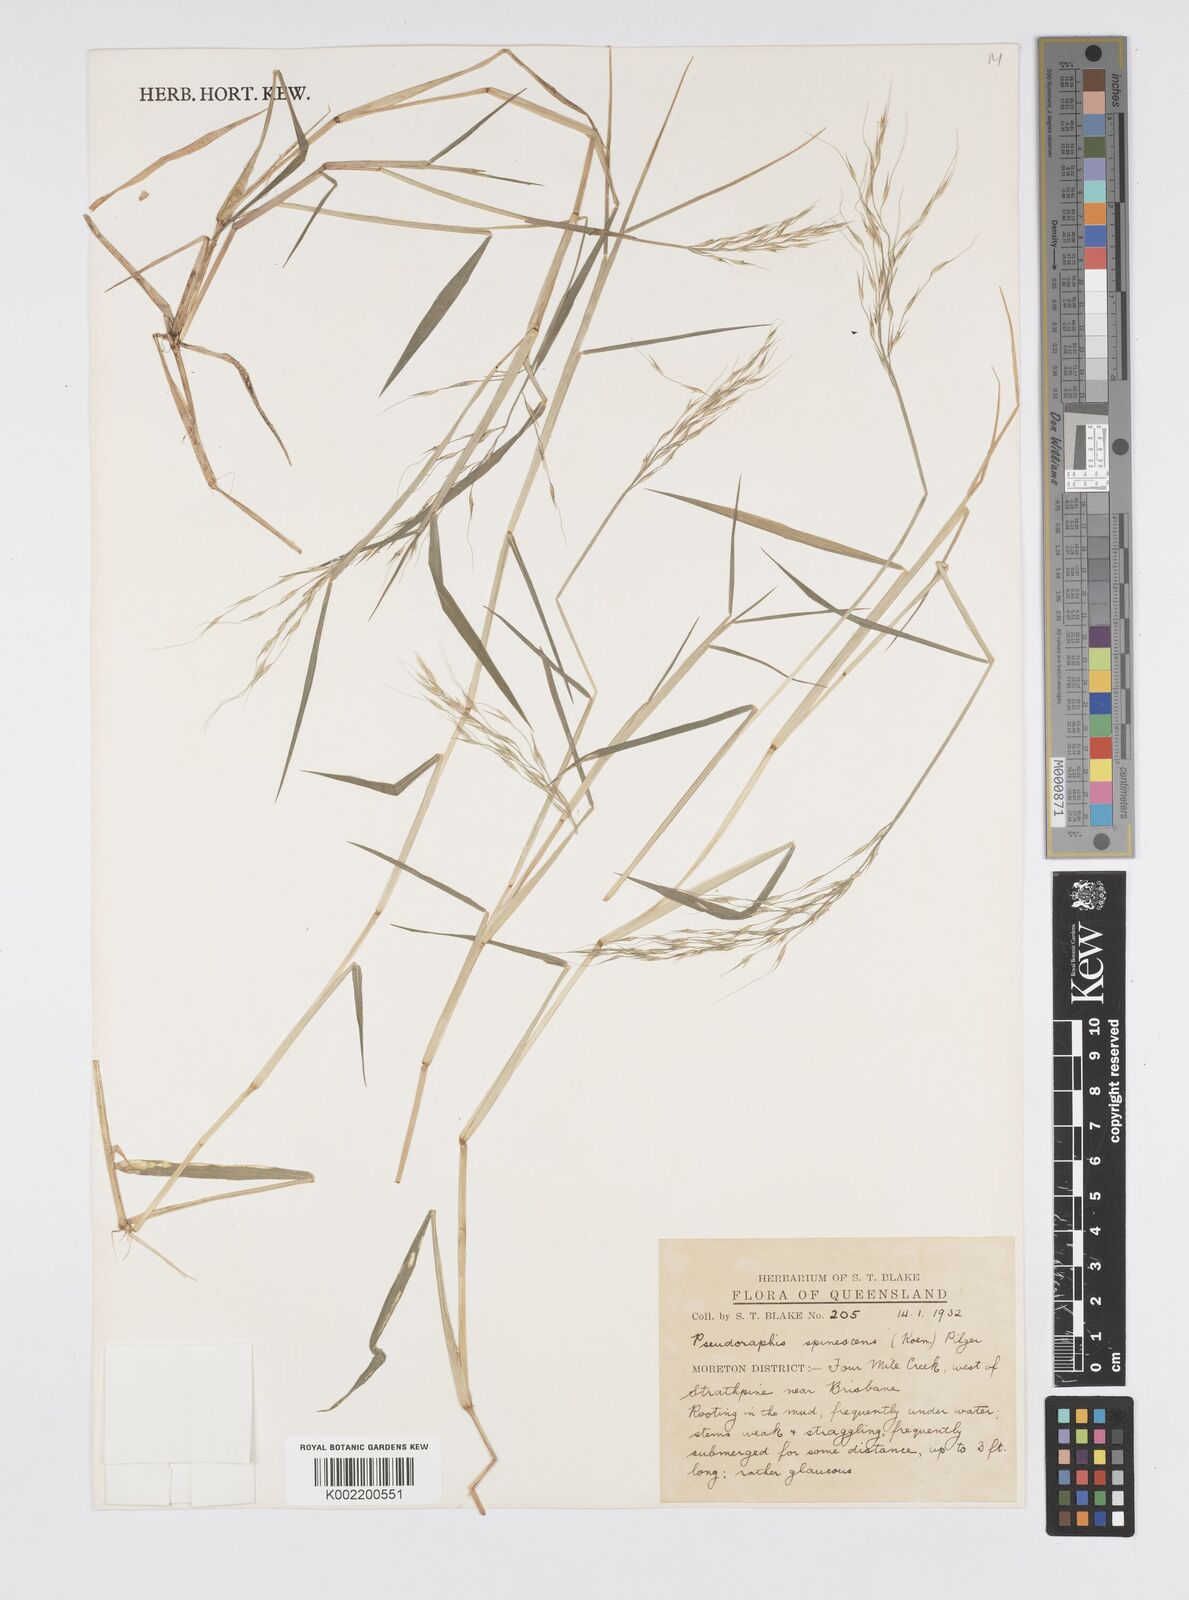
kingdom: Plantae
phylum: Tracheophyta
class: Liliopsida
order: Poales
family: Poaceae
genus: Pseudoraphis
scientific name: Pseudoraphis brunoniana
